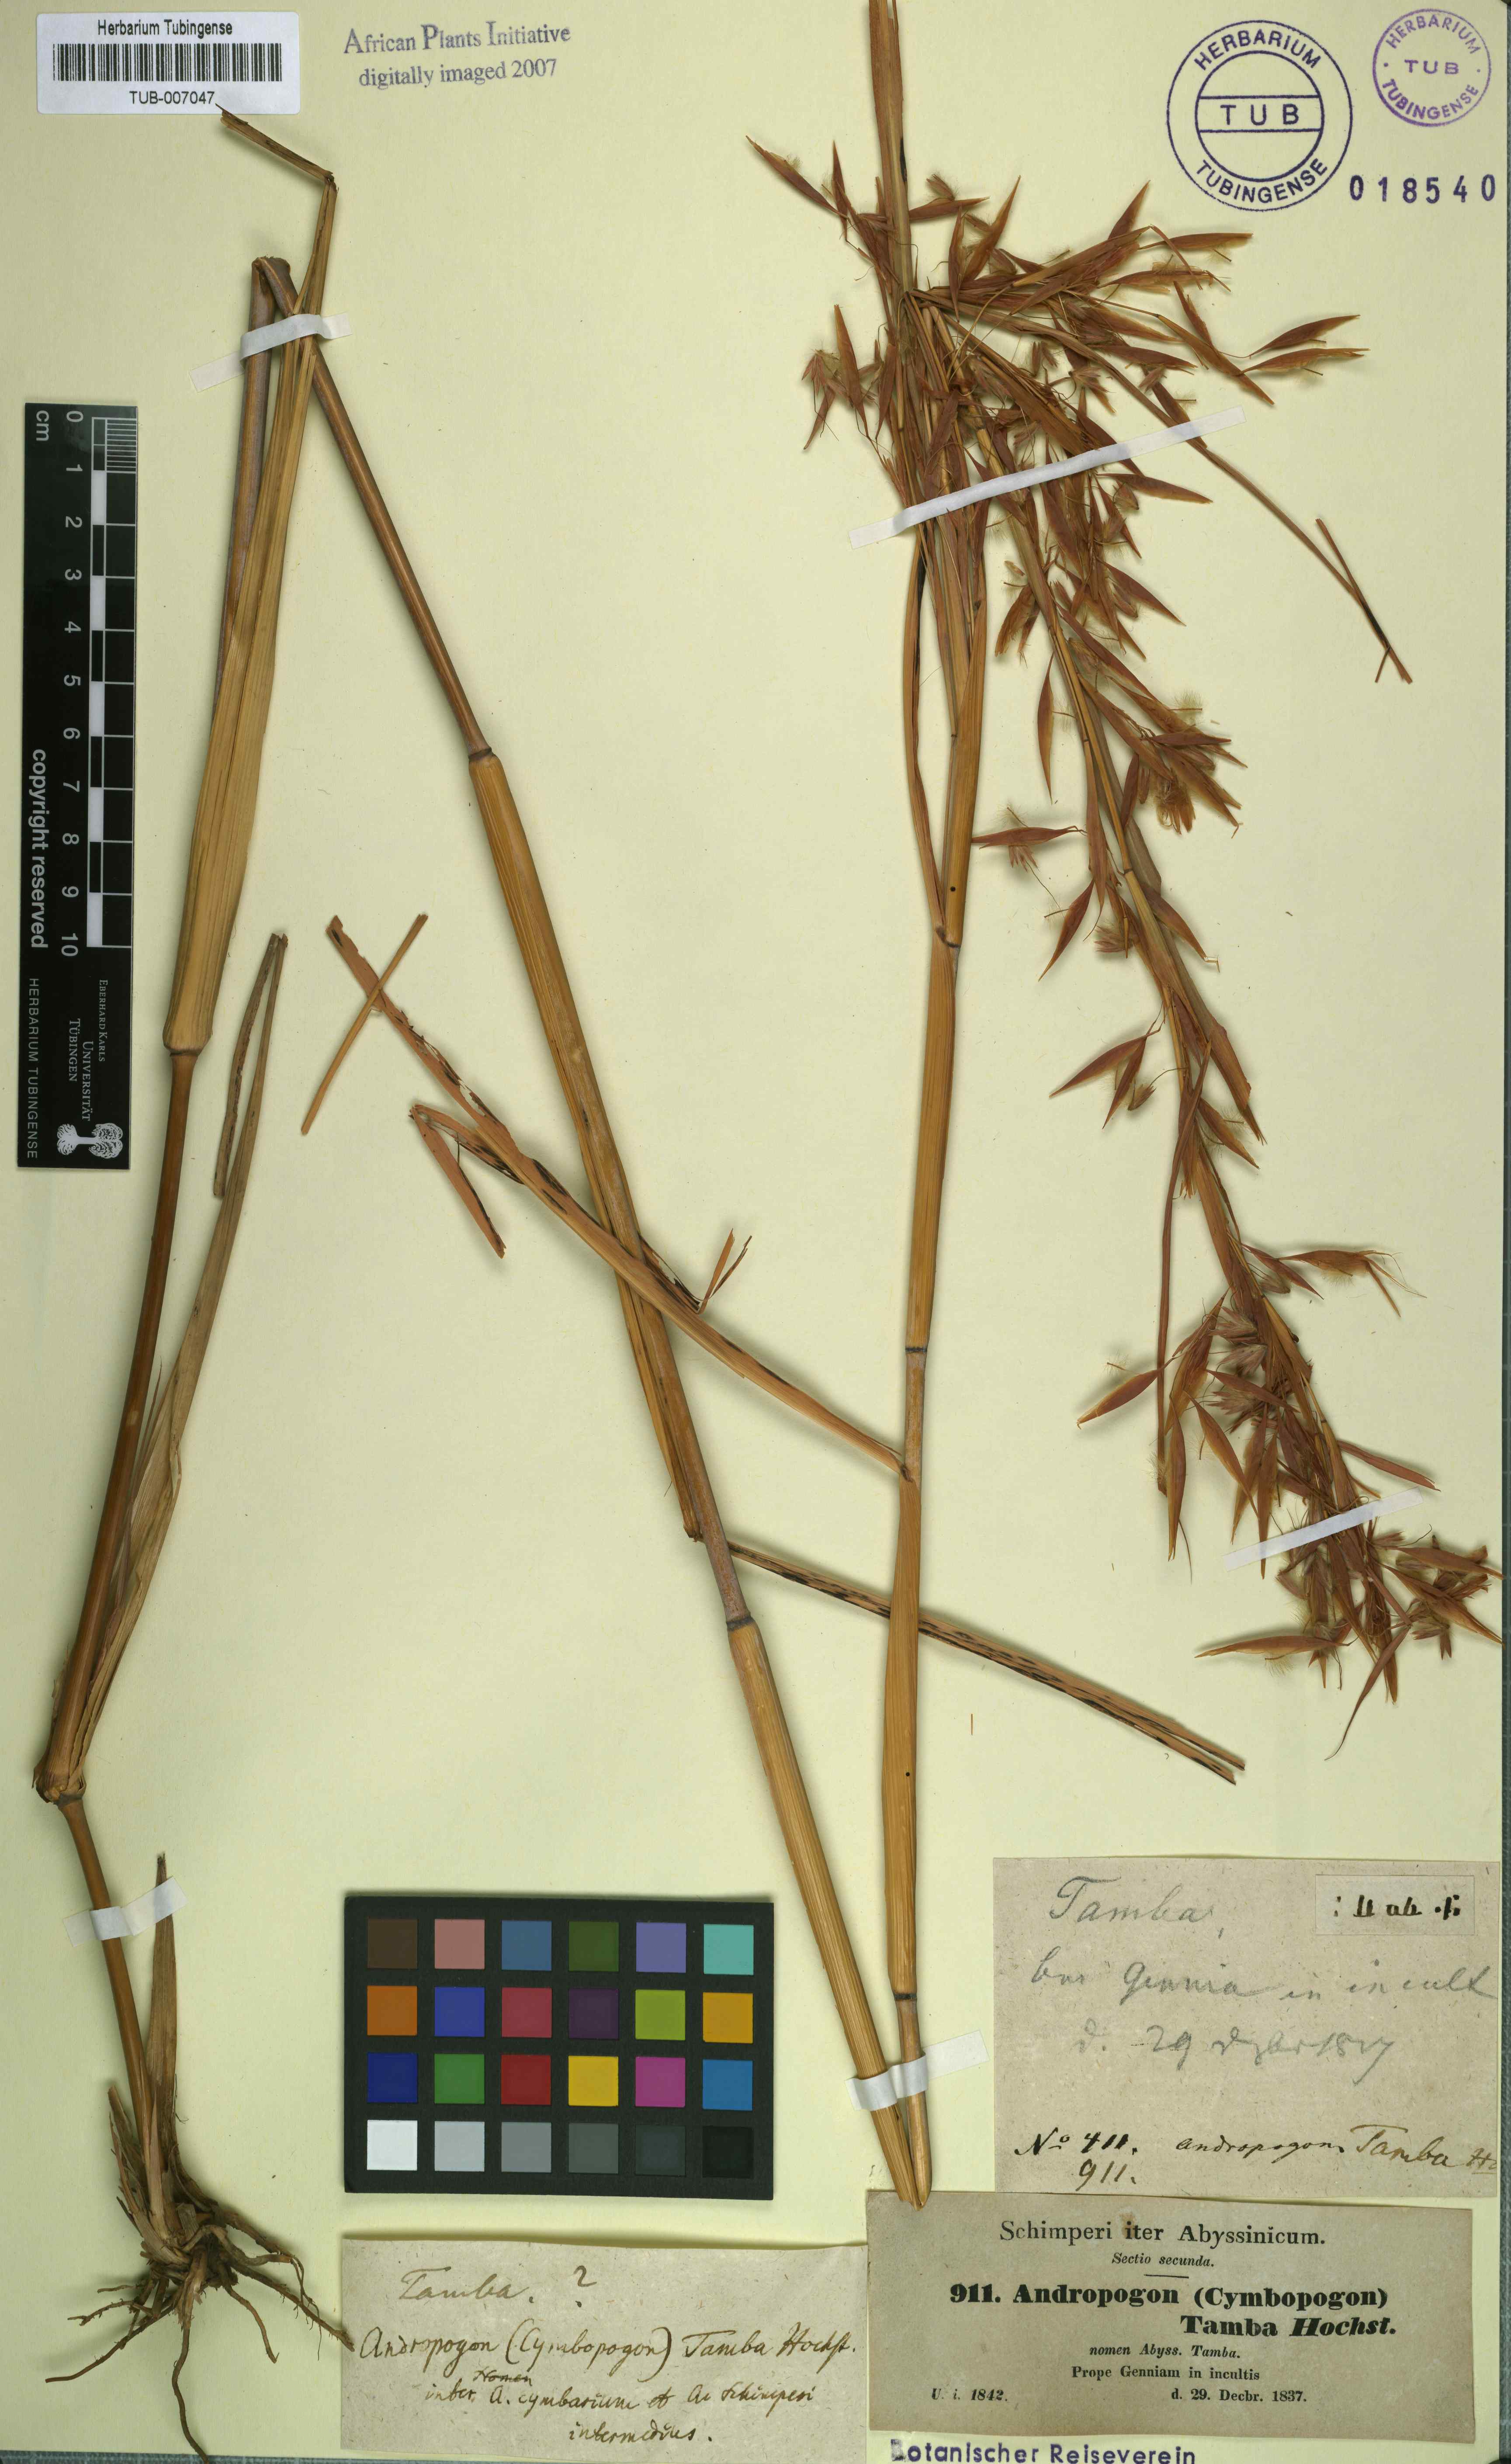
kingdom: Plantae
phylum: Tracheophyta
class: Liliopsida
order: Poales
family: Poaceae
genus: Hyparrhenia
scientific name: Hyparrhenia cymbaria
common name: Boat thatching grass
